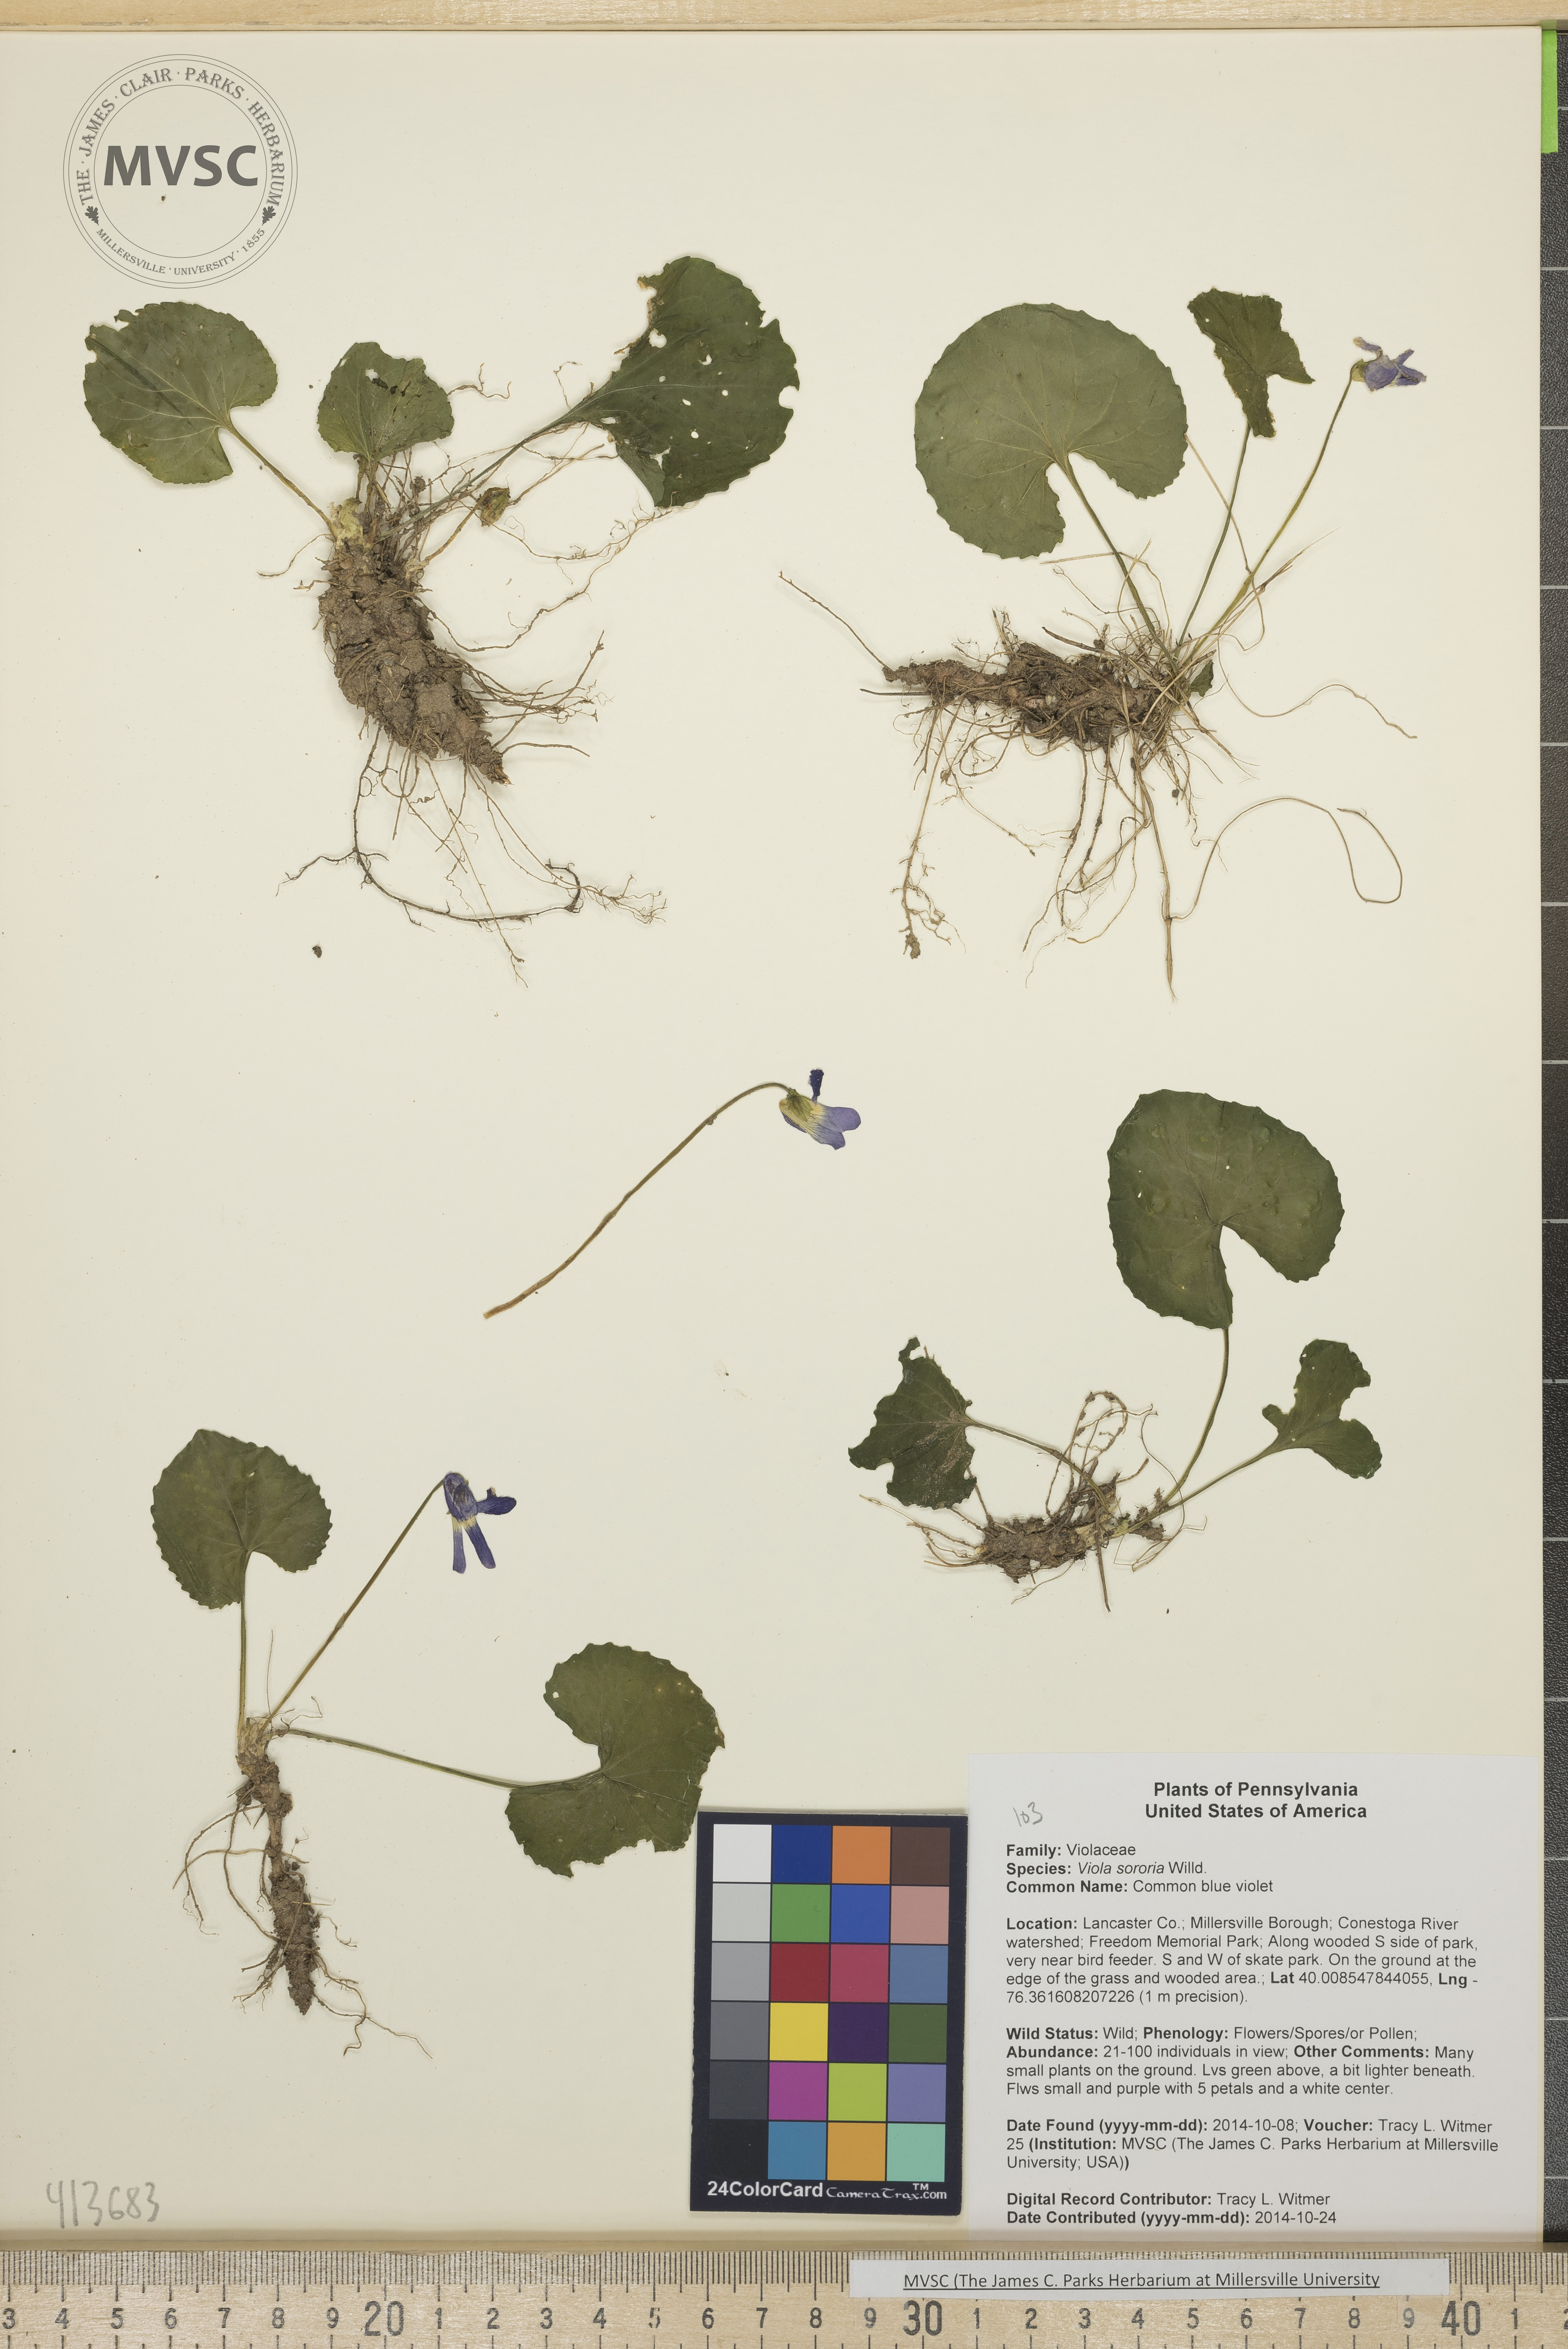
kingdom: Plantae
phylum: Tracheophyta
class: Magnoliopsida
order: Malpighiales
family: Violaceae
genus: Viola
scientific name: Viola sororia
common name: Common blue violet
